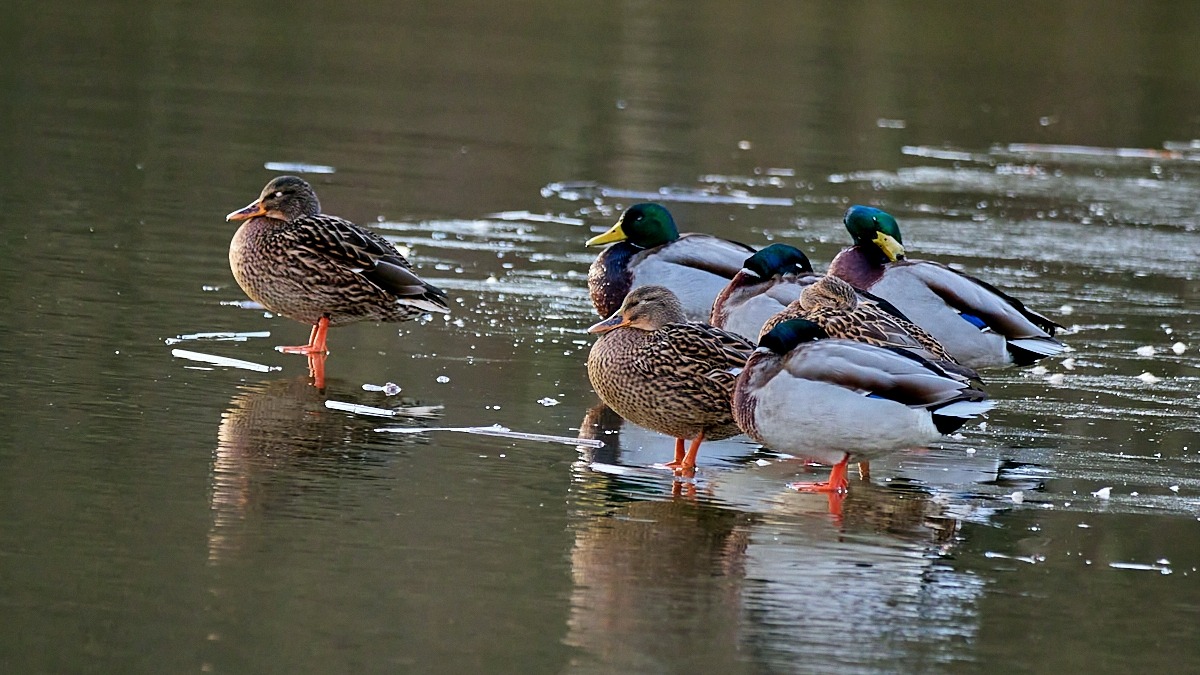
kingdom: Animalia
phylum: Chordata
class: Aves
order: Anseriformes
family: Anatidae
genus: Anas
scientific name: Anas platyrhynchos
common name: Gråand
